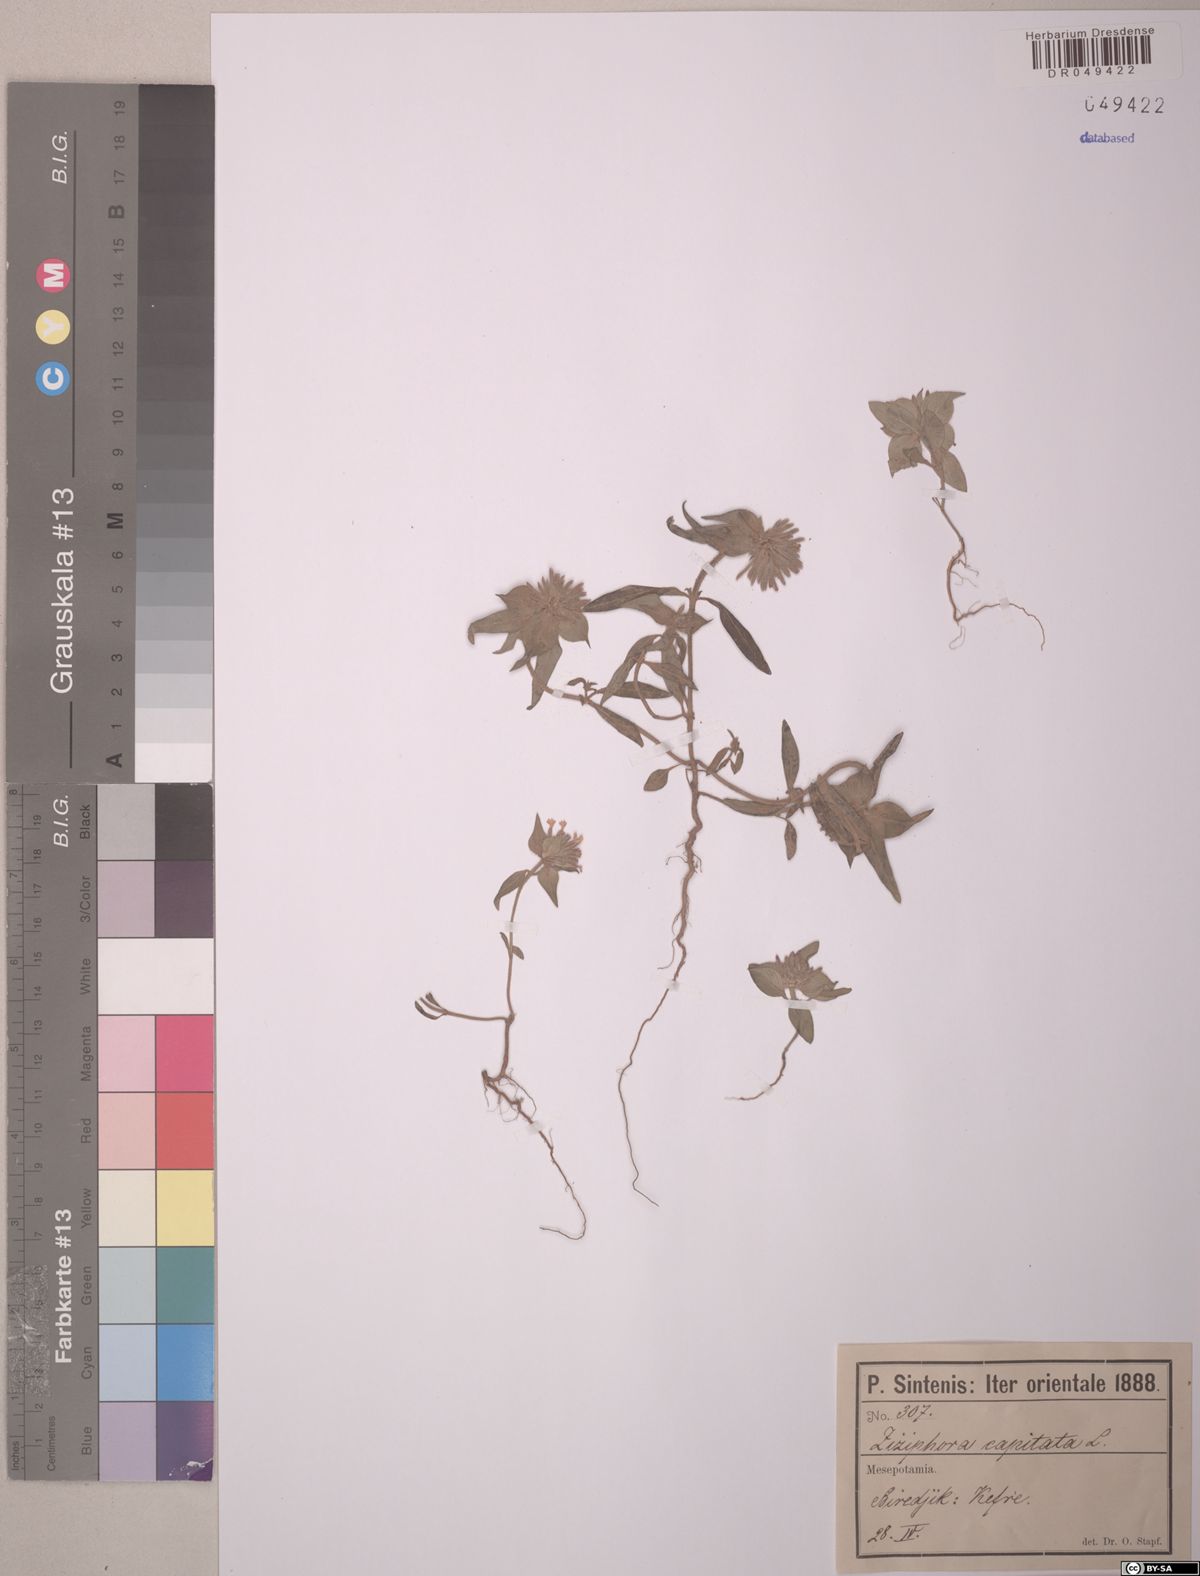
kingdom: Plantae
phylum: Tracheophyta
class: Magnoliopsida
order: Lamiales
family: Lamiaceae
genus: Ziziphora
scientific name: Ziziphora capitata
